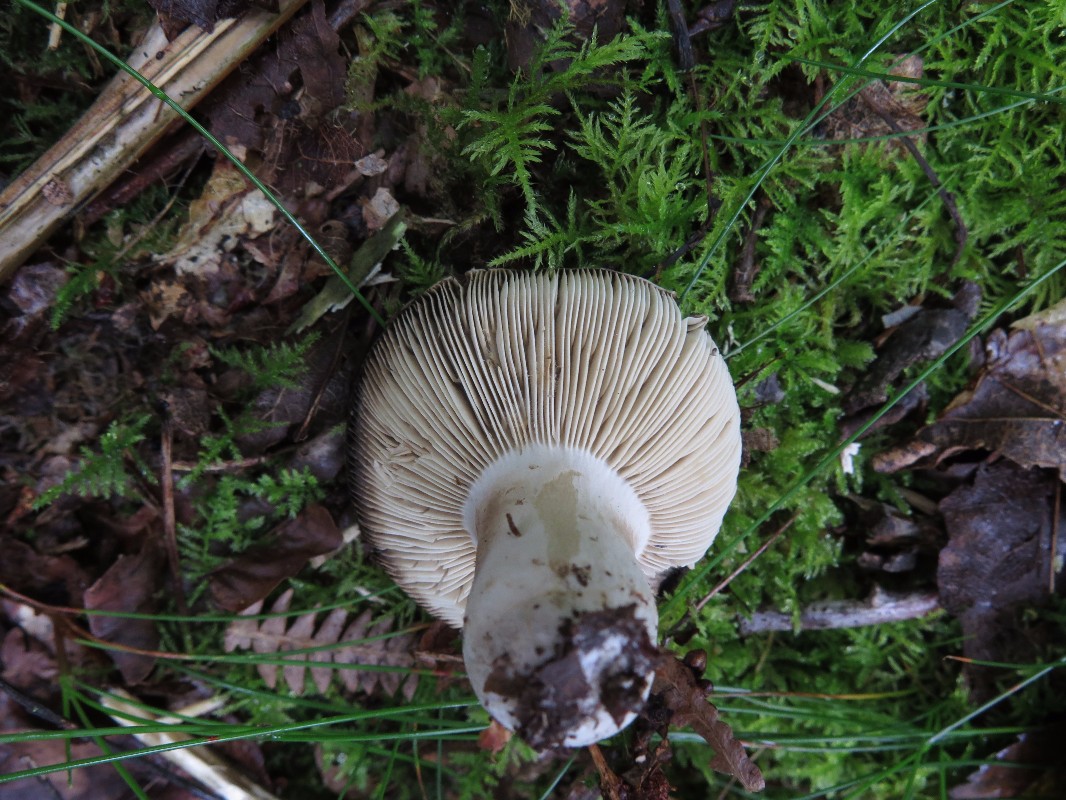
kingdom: Fungi
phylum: Basidiomycota
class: Agaricomycetes
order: Russulales
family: Russulaceae
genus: Russula
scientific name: Russula
